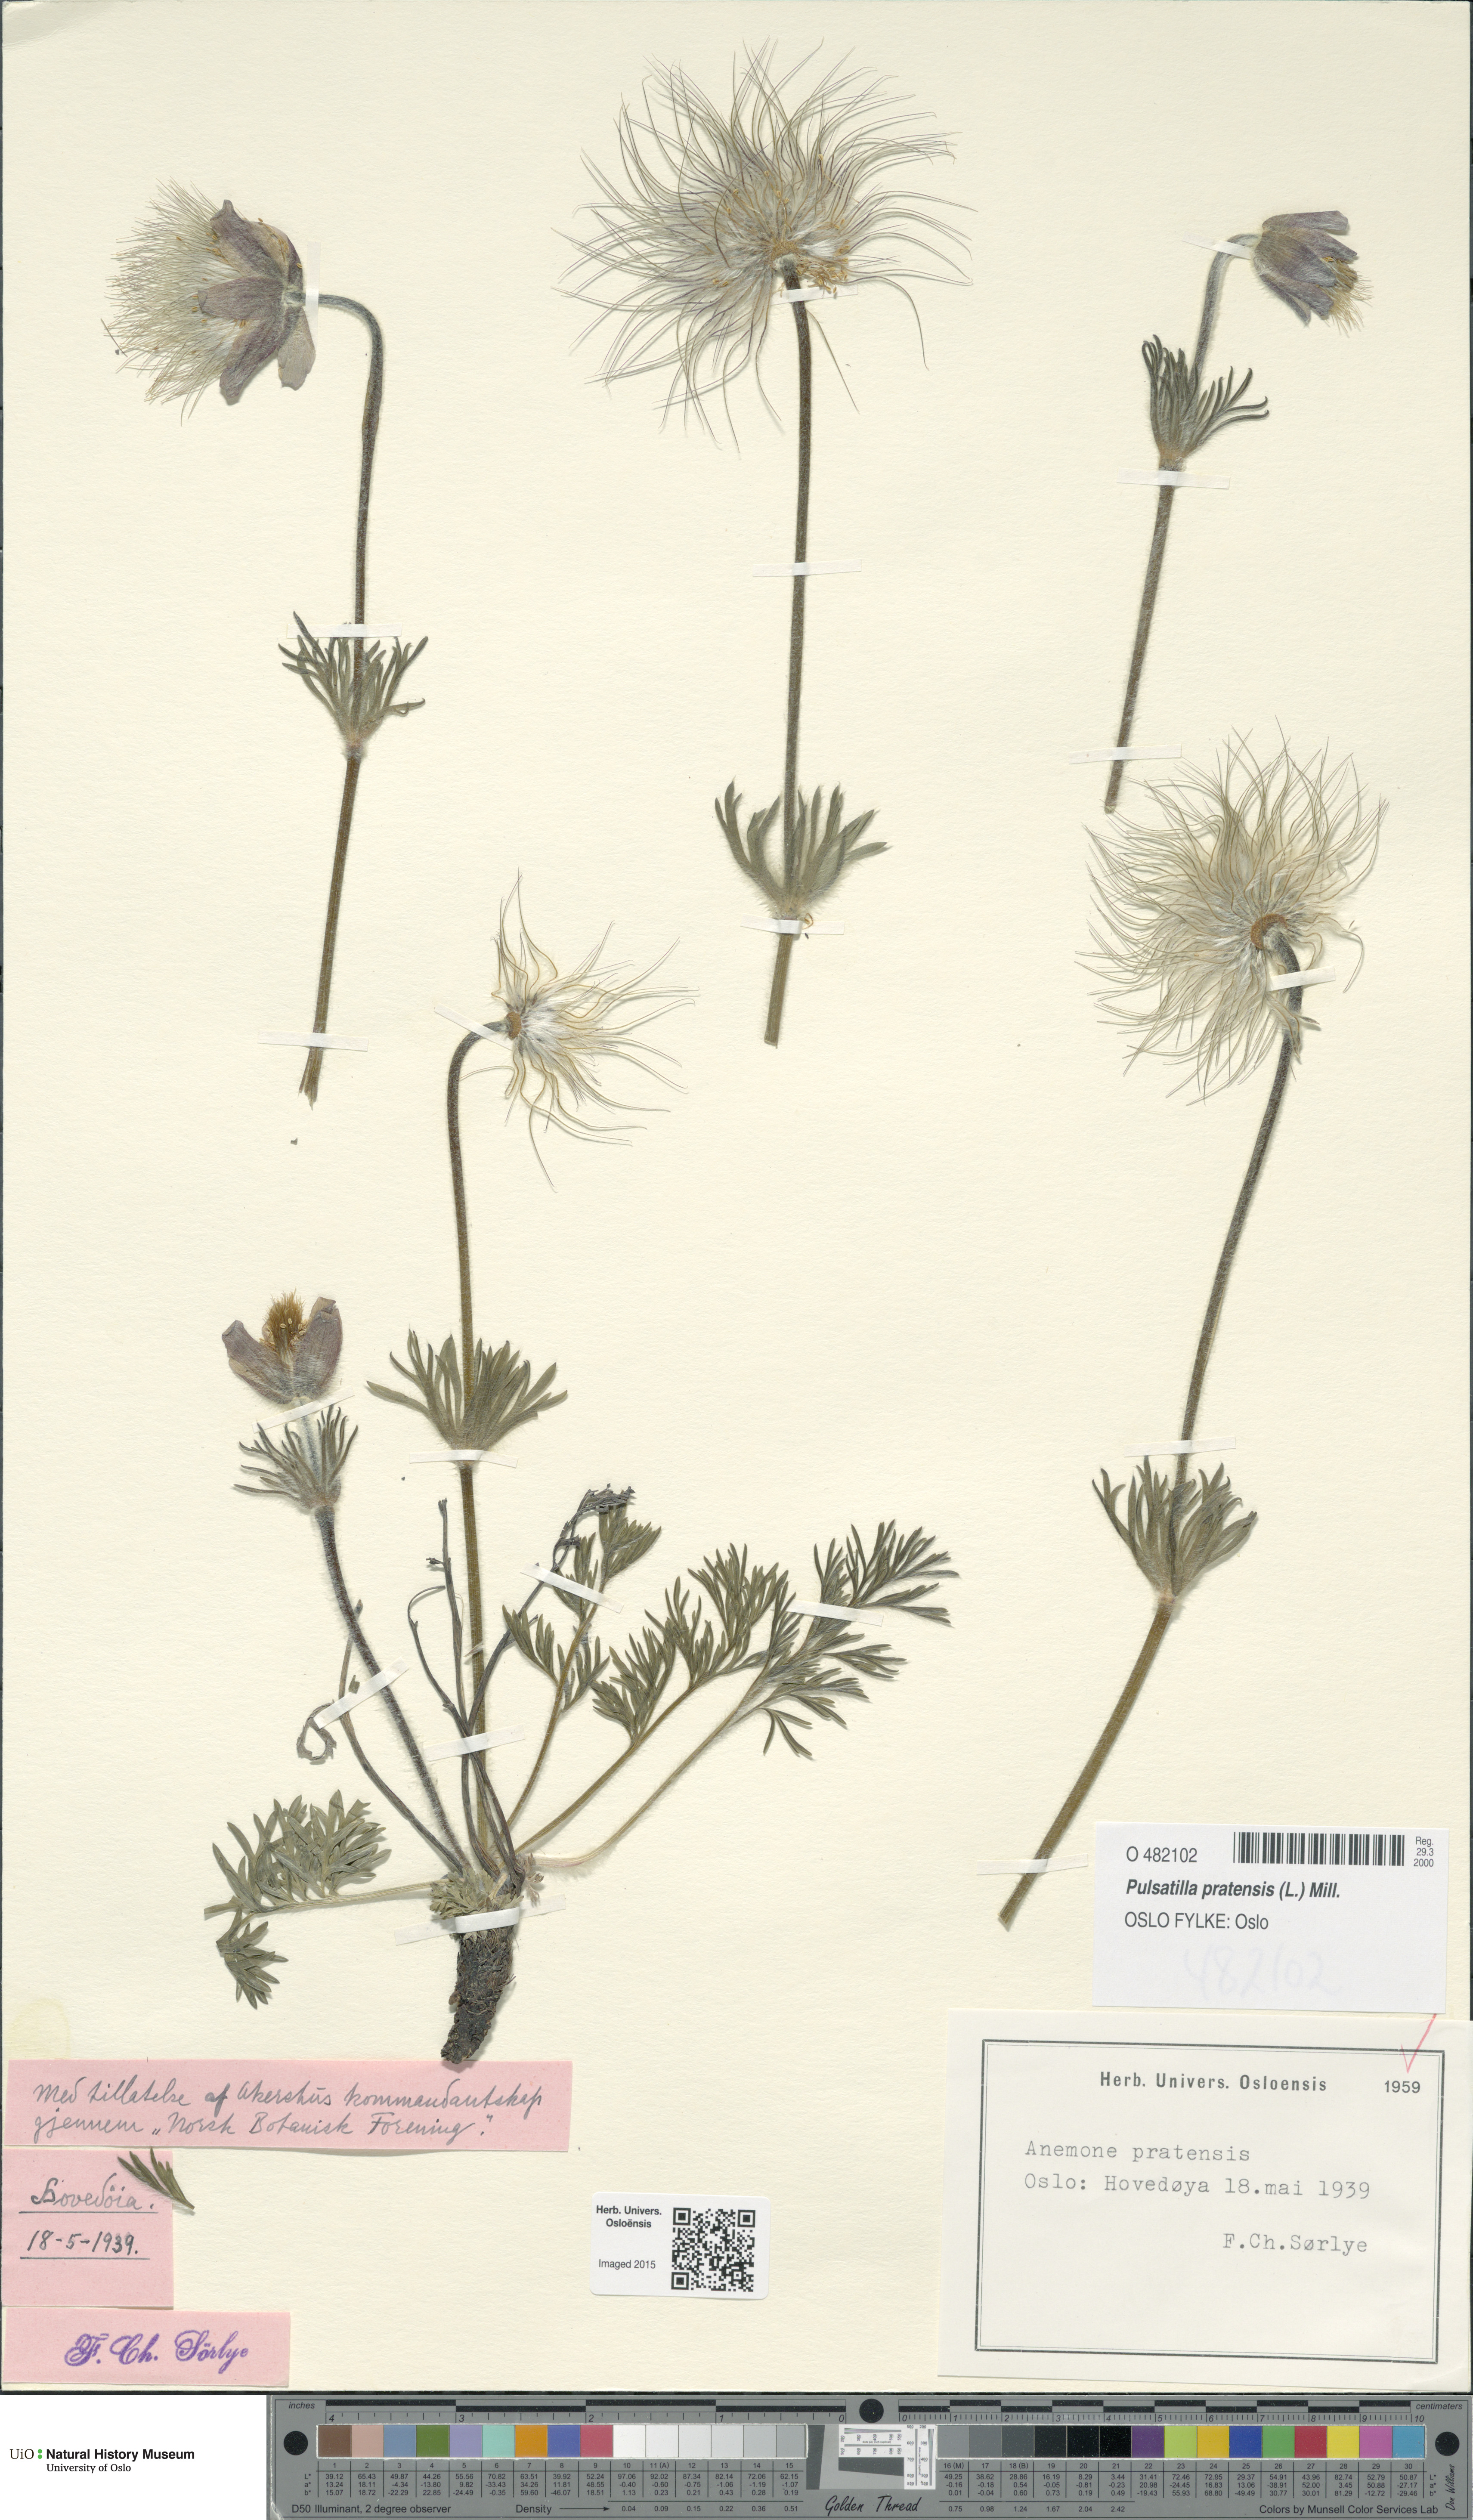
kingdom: Plantae
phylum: Tracheophyta
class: Magnoliopsida
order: Ranunculales
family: Ranunculaceae
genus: Pulsatilla
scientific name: Pulsatilla pratensis
